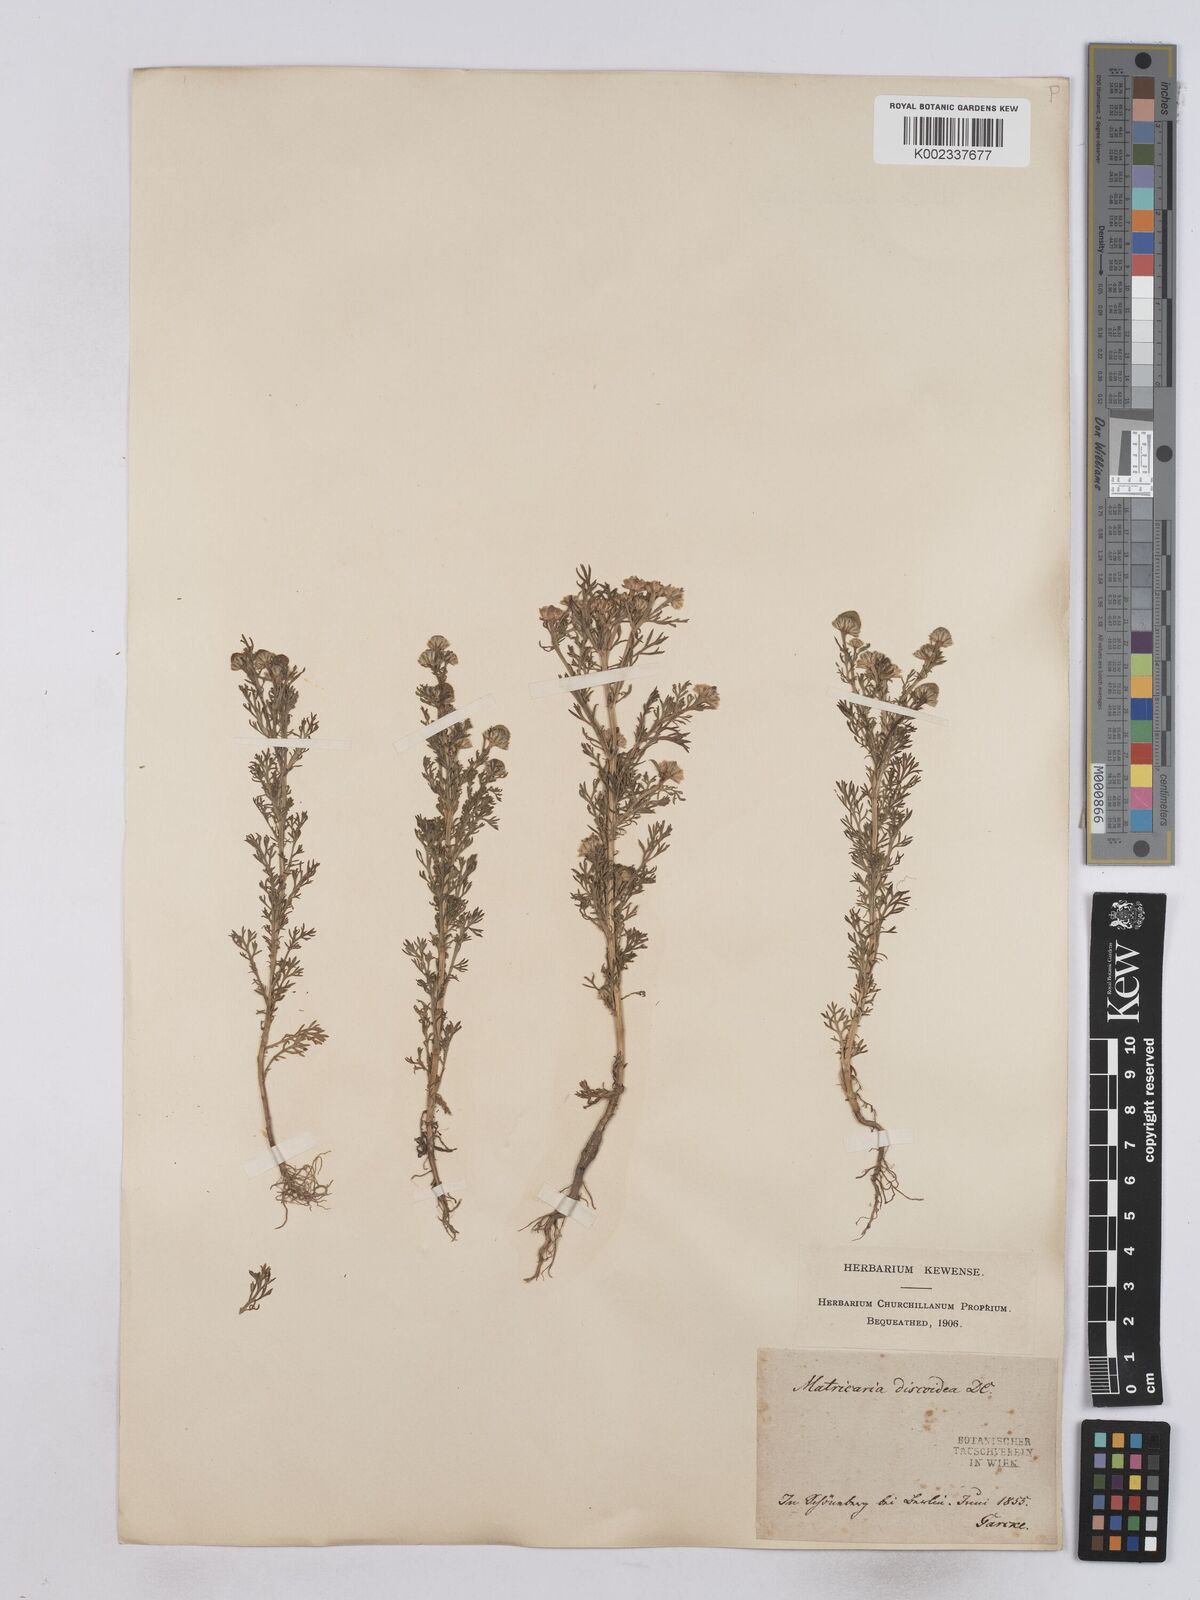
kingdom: Plantae
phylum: Tracheophyta
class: Magnoliopsida
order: Asterales
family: Asteraceae
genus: Matricaria
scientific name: Matricaria discoidea
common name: Disc mayweed
